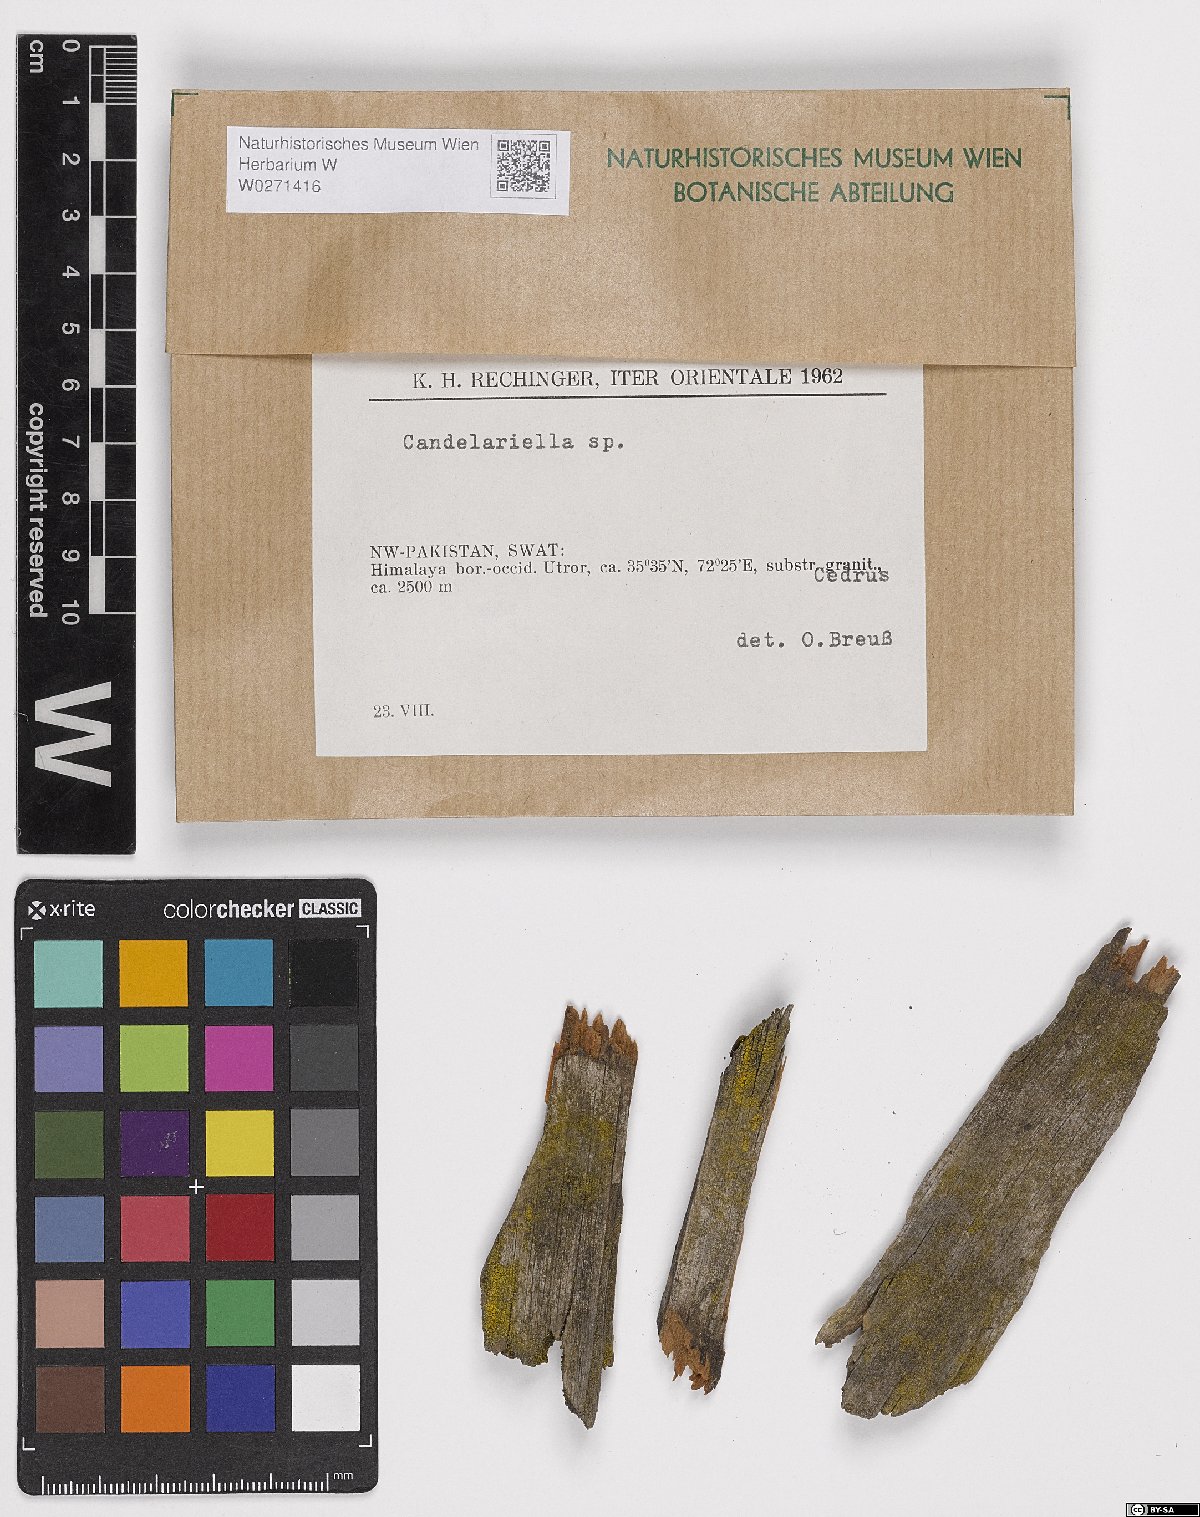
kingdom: Fungi
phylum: Ascomycota
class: Candelariomycetes
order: Candelariales
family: Candelariaceae
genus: Candelariella
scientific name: Candelariella
